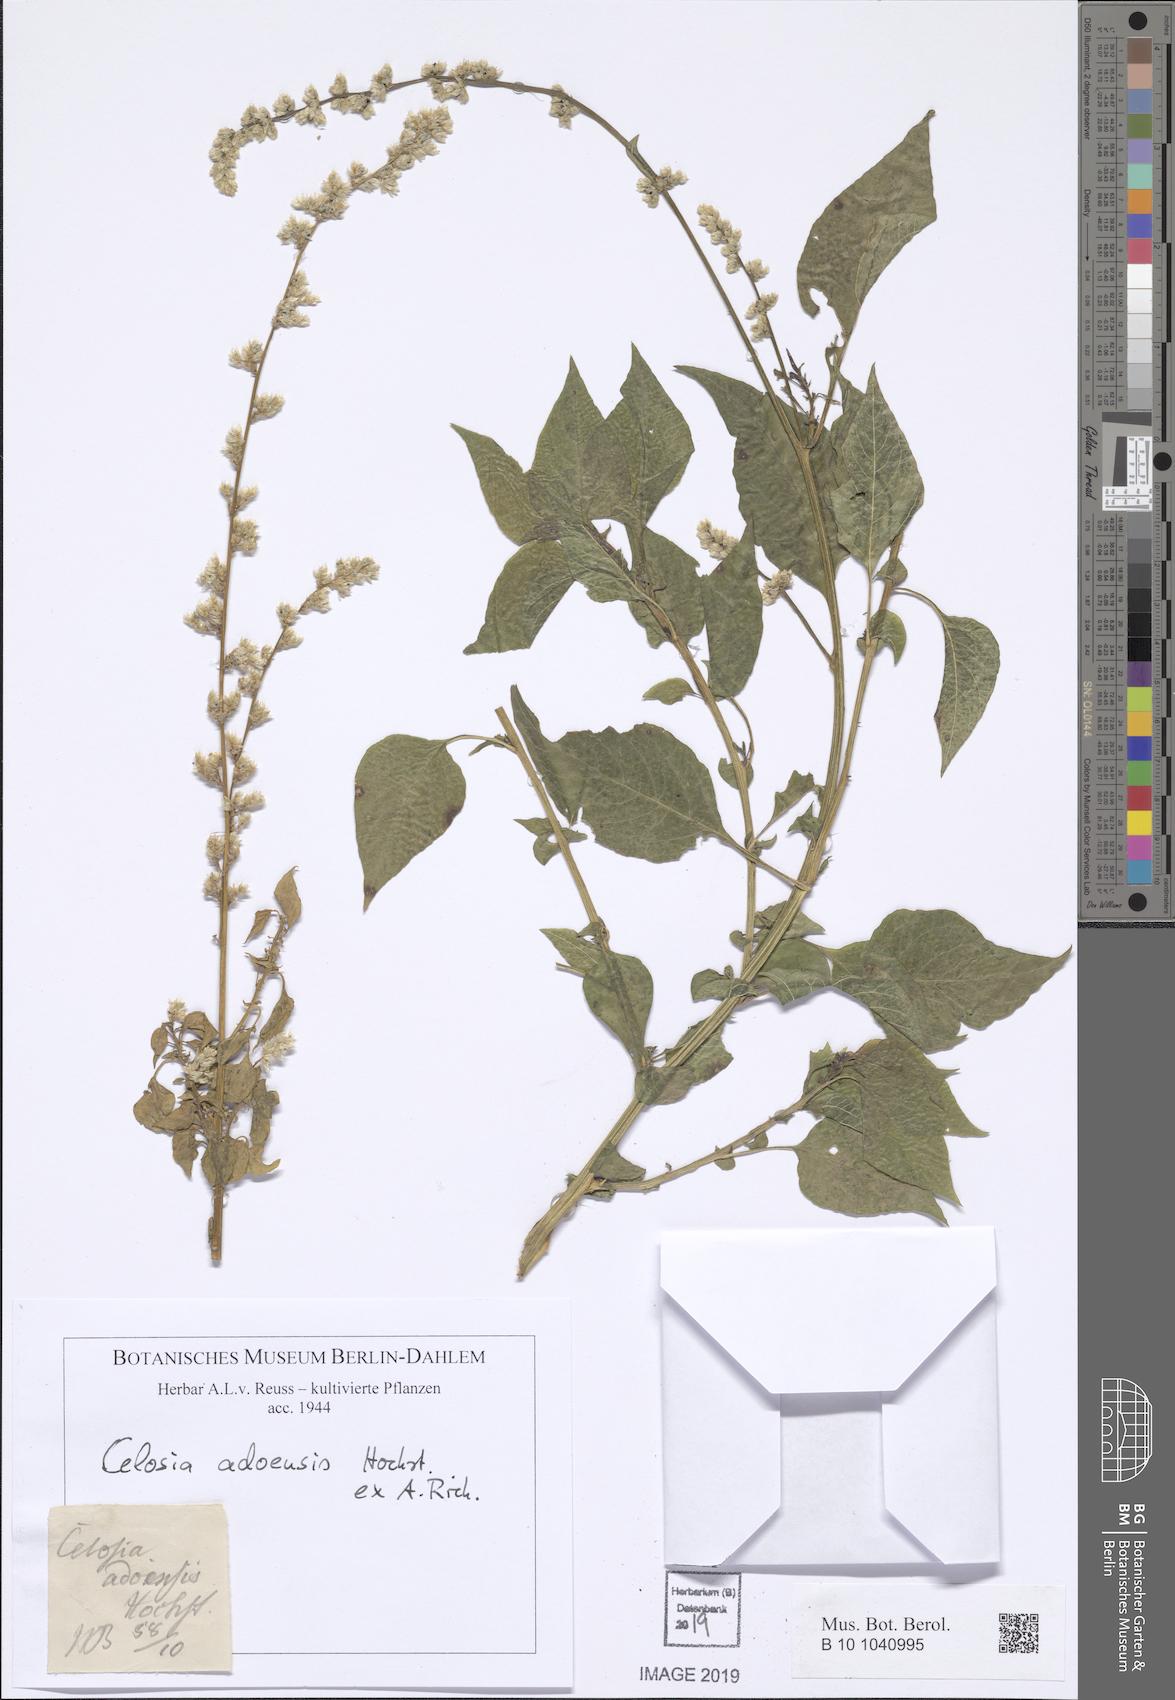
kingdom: Plantae
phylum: Tracheophyta
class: Magnoliopsida
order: Caryophyllales
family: Amaranthaceae
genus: Celosia
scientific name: Celosia trigyna
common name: Woolflower
